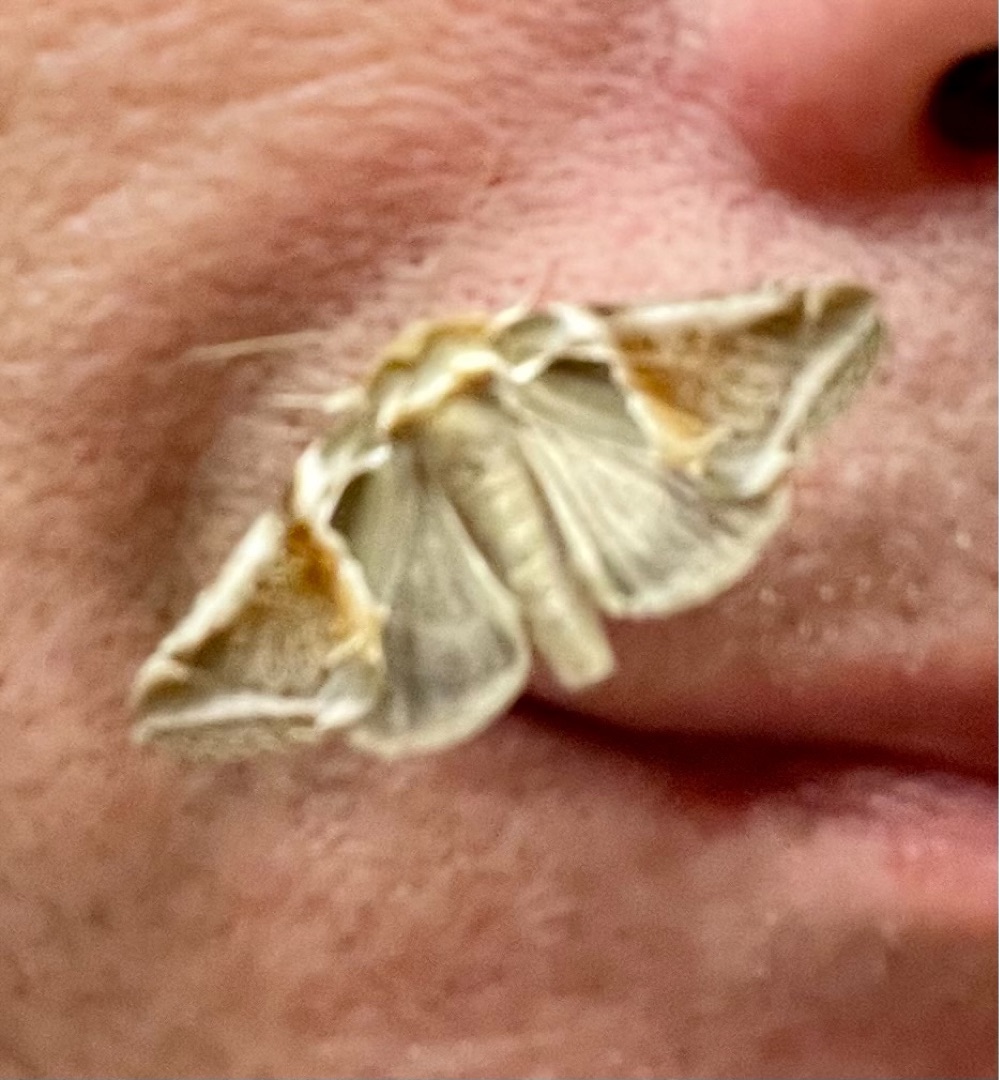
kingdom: Animalia
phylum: Arthropoda
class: Insecta
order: Lepidoptera
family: Drepanidae
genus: Habrosyne
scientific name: Habrosyne pyritoides
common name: Klyngerspinder
